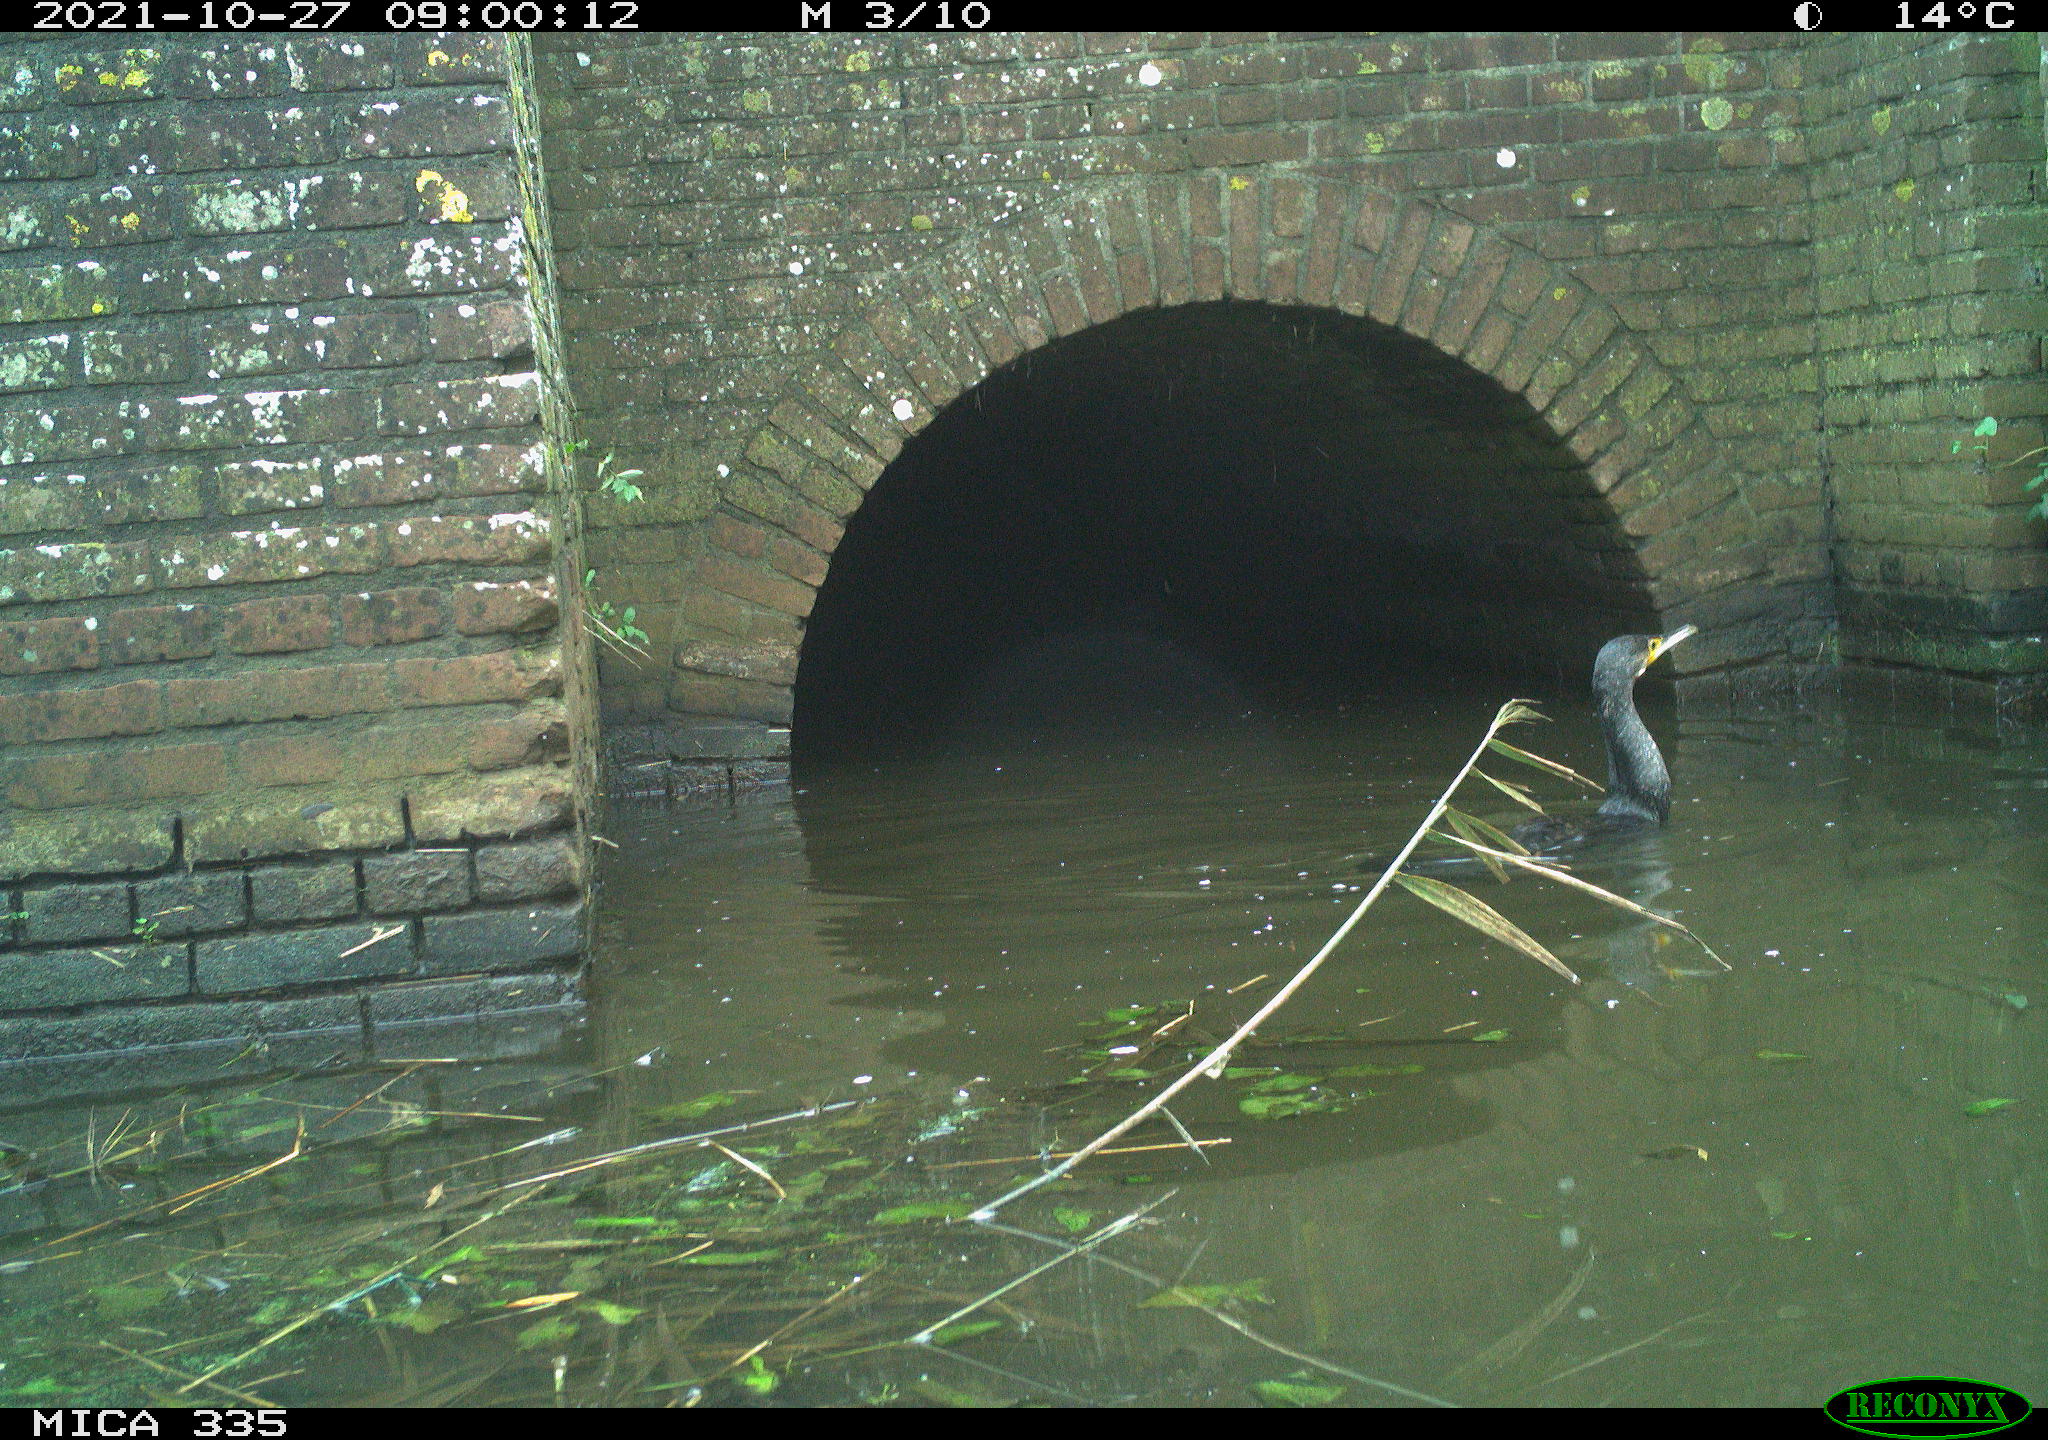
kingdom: Animalia
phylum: Chordata
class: Aves
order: Suliformes
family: Phalacrocoracidae
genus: Phalacrocorax
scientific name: Phalacrocorax carbo
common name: Great cormorant
